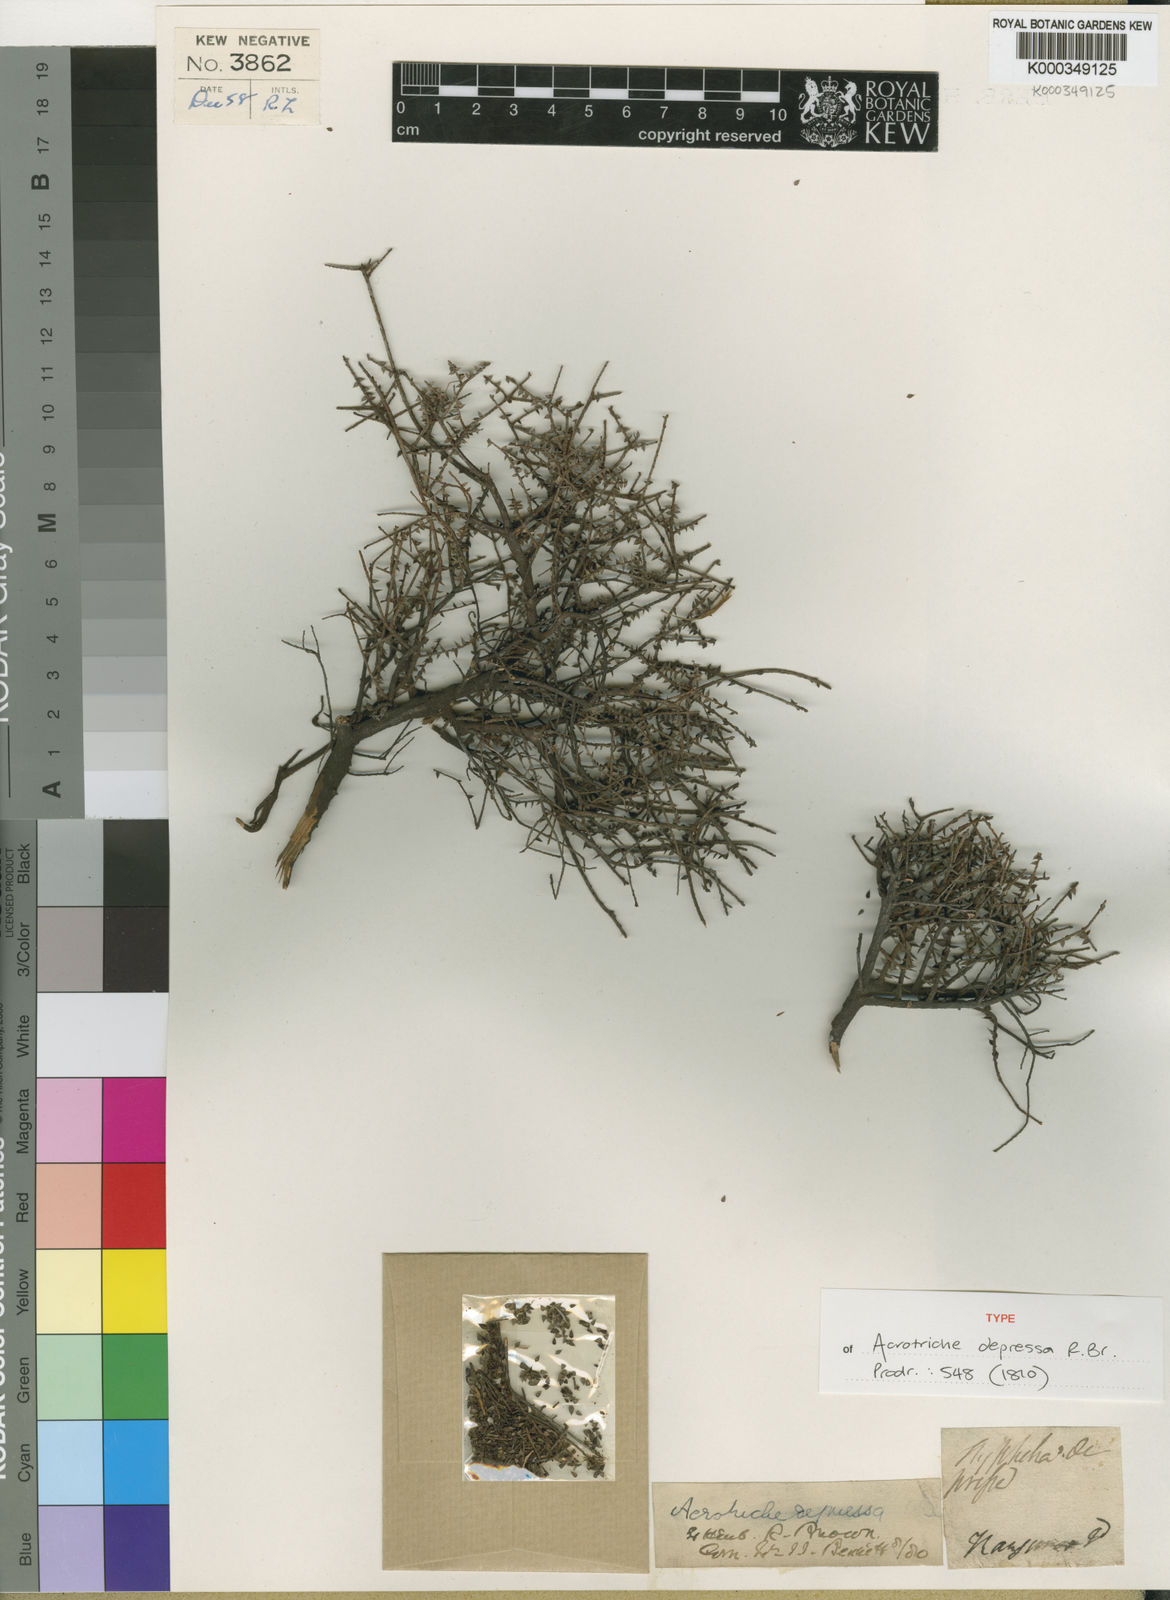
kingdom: Plantae
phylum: Tracheophyta
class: Magnoliopsida
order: Ericales
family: Ericaceae
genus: Acrotriche
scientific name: Acrotriche depressa
